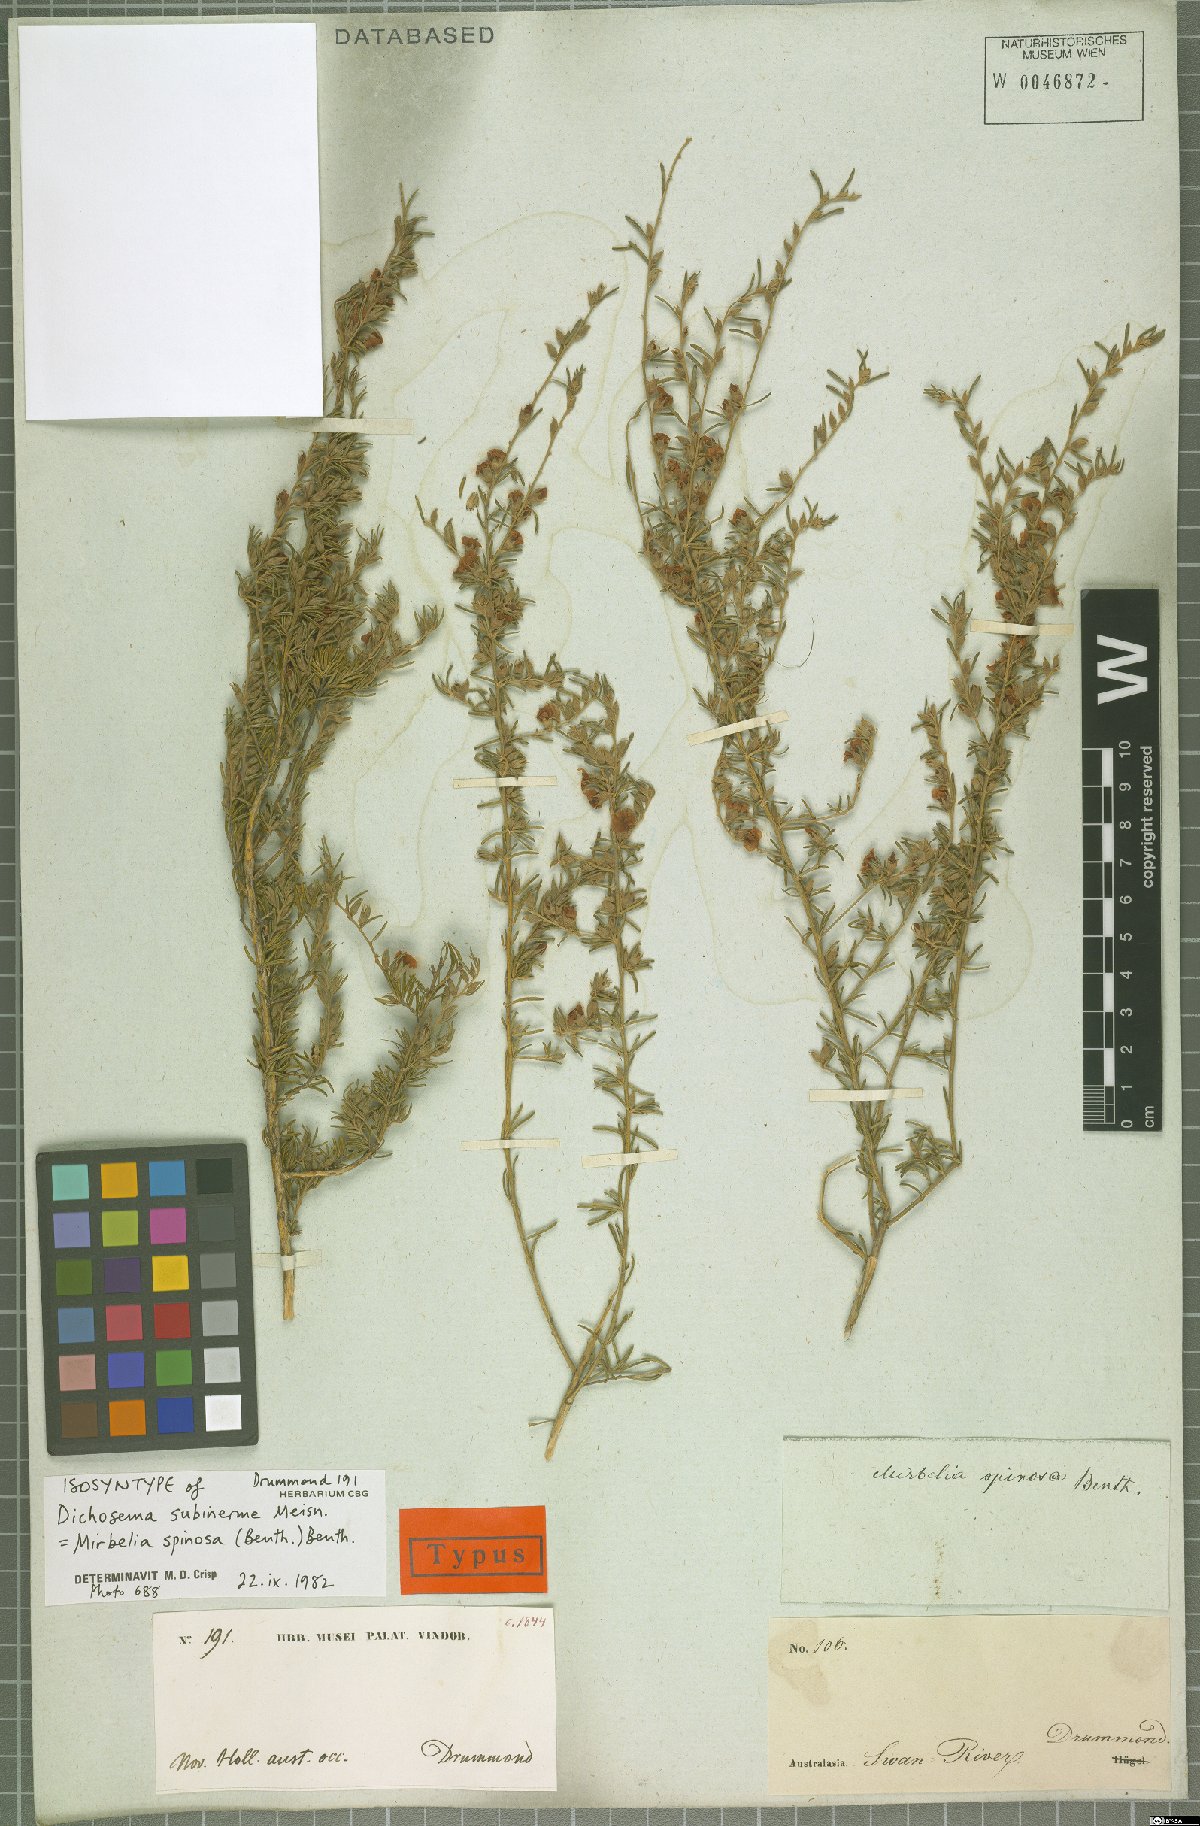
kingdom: Plantae
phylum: Tracheophyta
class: Magnoliopsida
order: Fabales
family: Fabaceae
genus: Mirbelia
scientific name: Mirbelia spinosa
